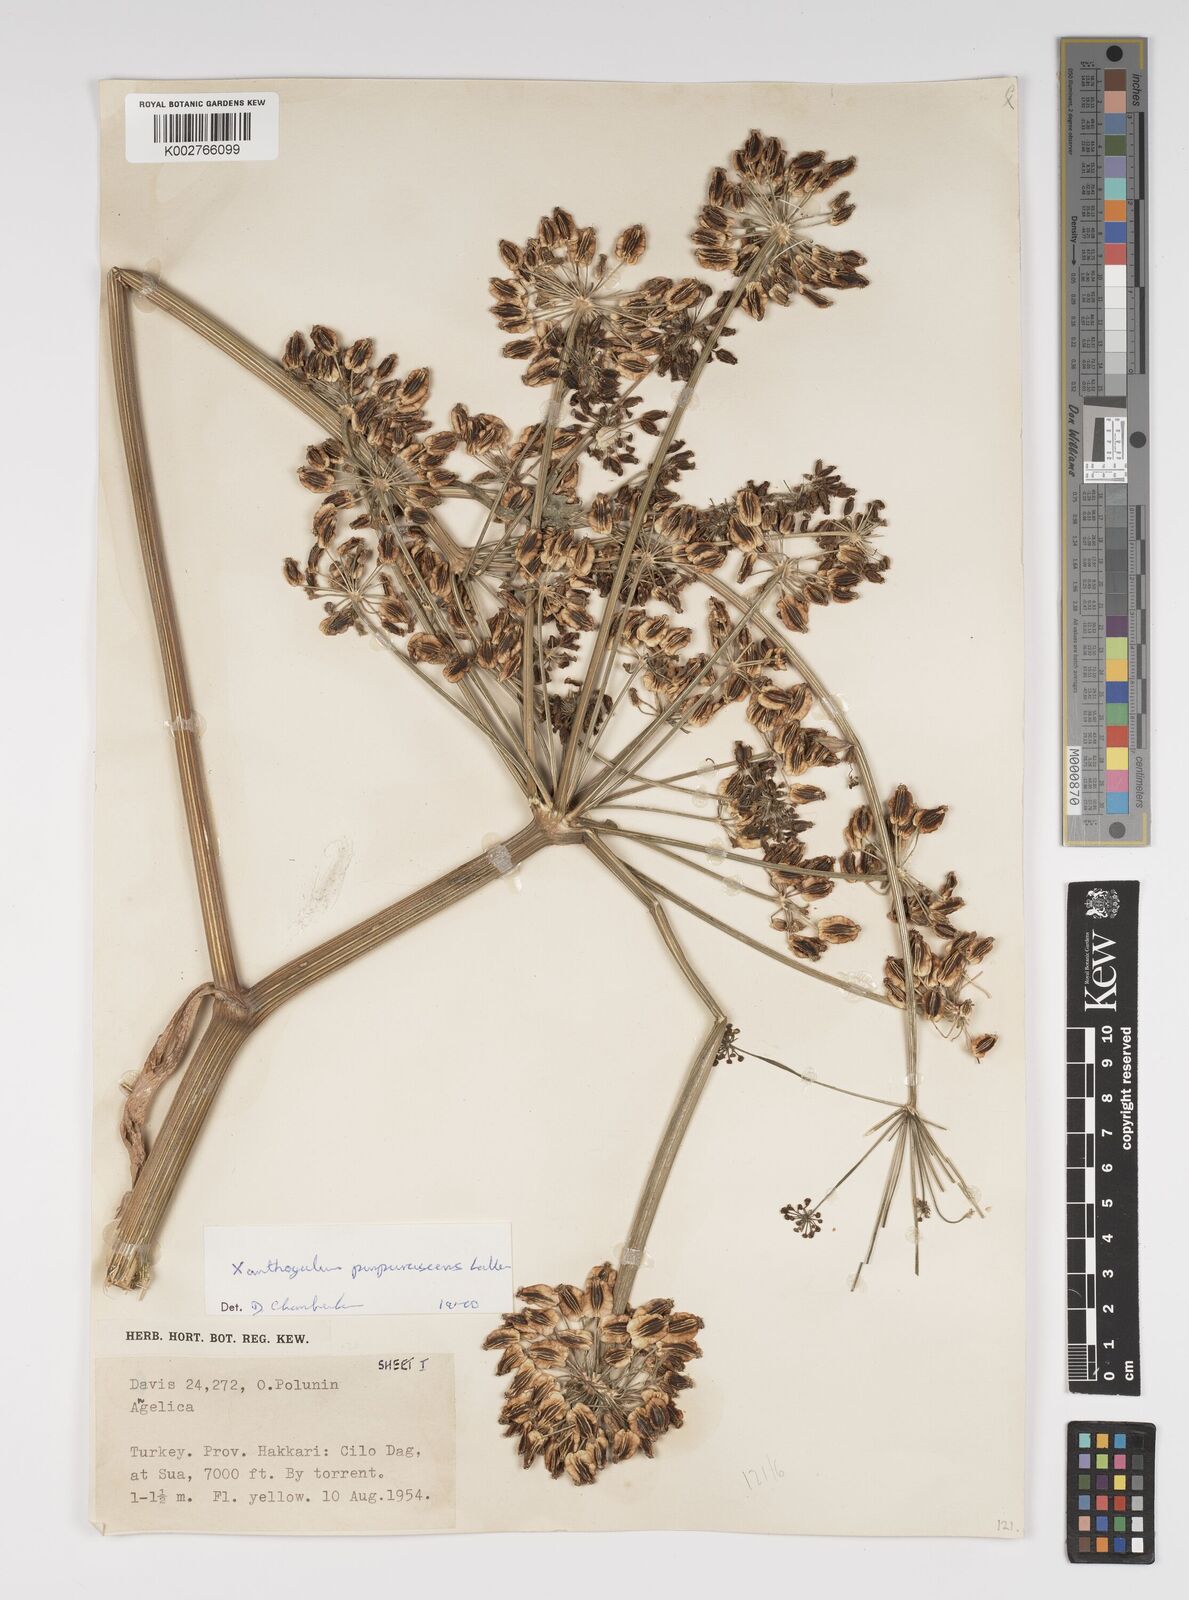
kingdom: Plantae
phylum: Tracheophyta
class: Magnoliopsida
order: Apiales
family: Apiaceae
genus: Xanthogalum
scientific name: Xanthogalum purpurascens
